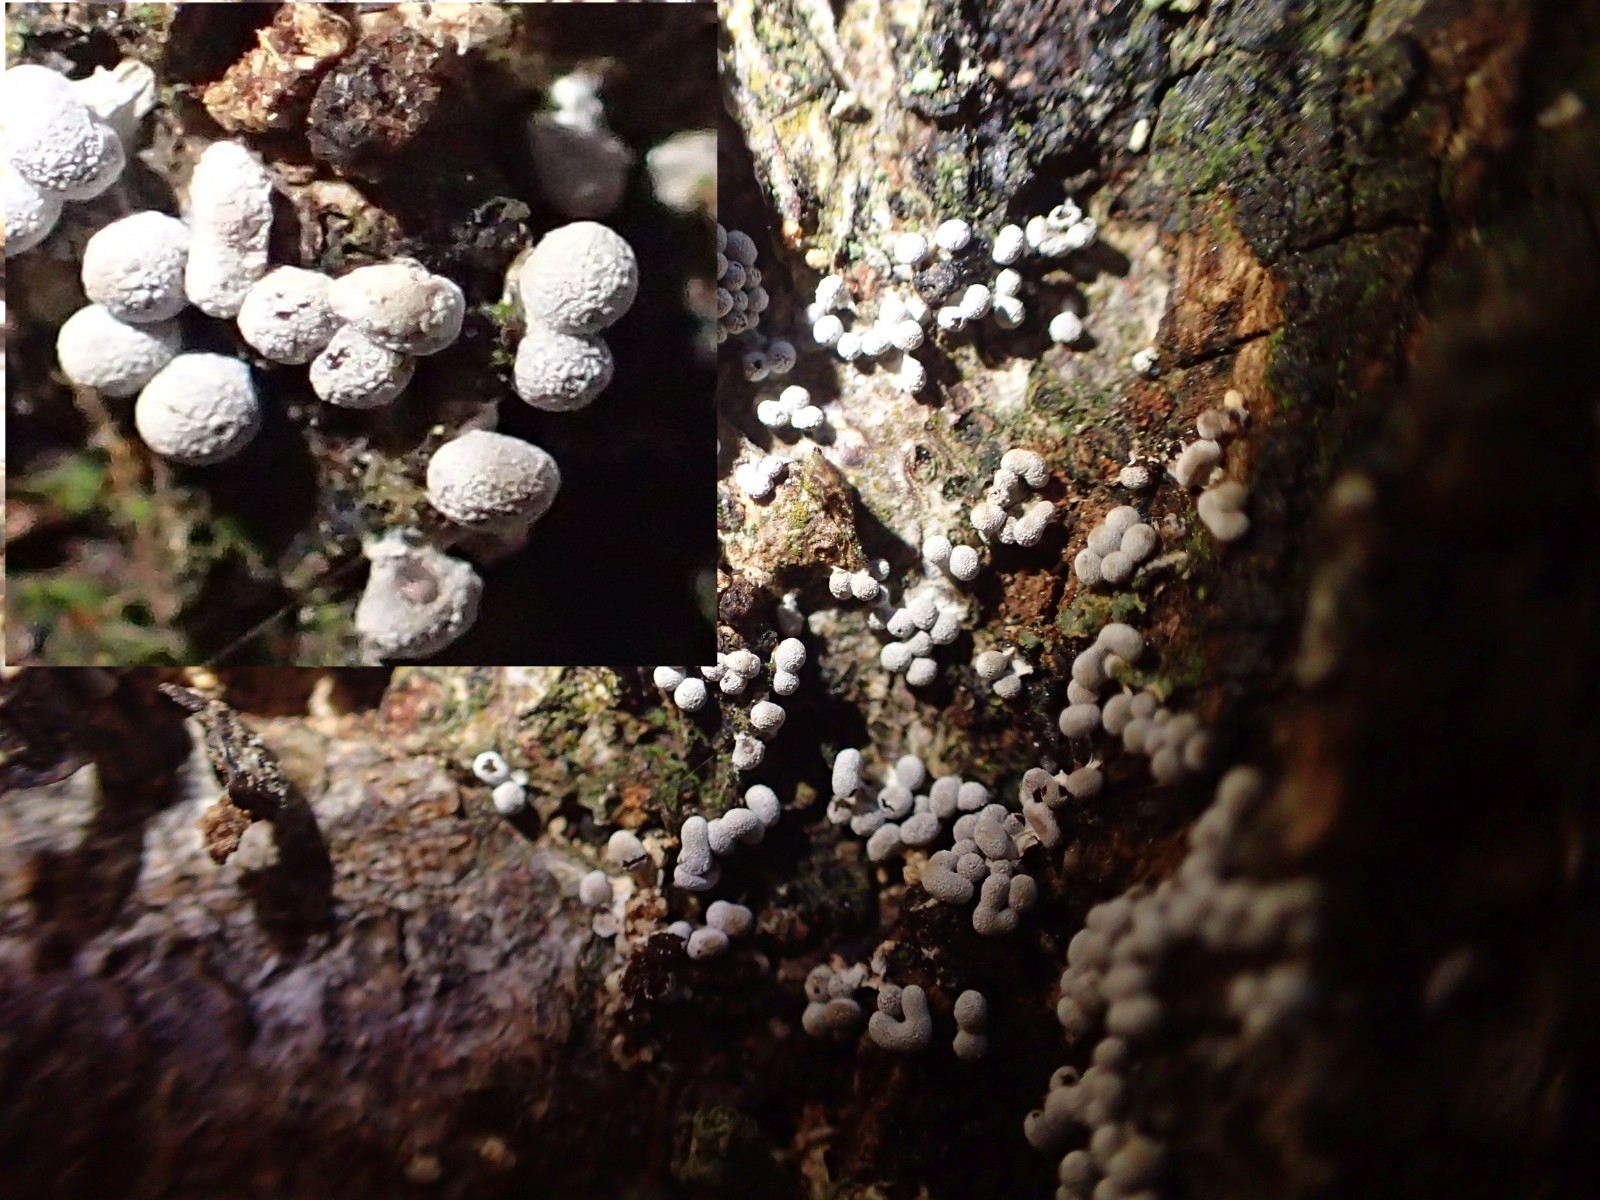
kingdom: Protozoa
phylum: Mycetozoa
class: Myxomycetes
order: Physarales
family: Physaraceae
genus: Physarum
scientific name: Physarum leucopus
